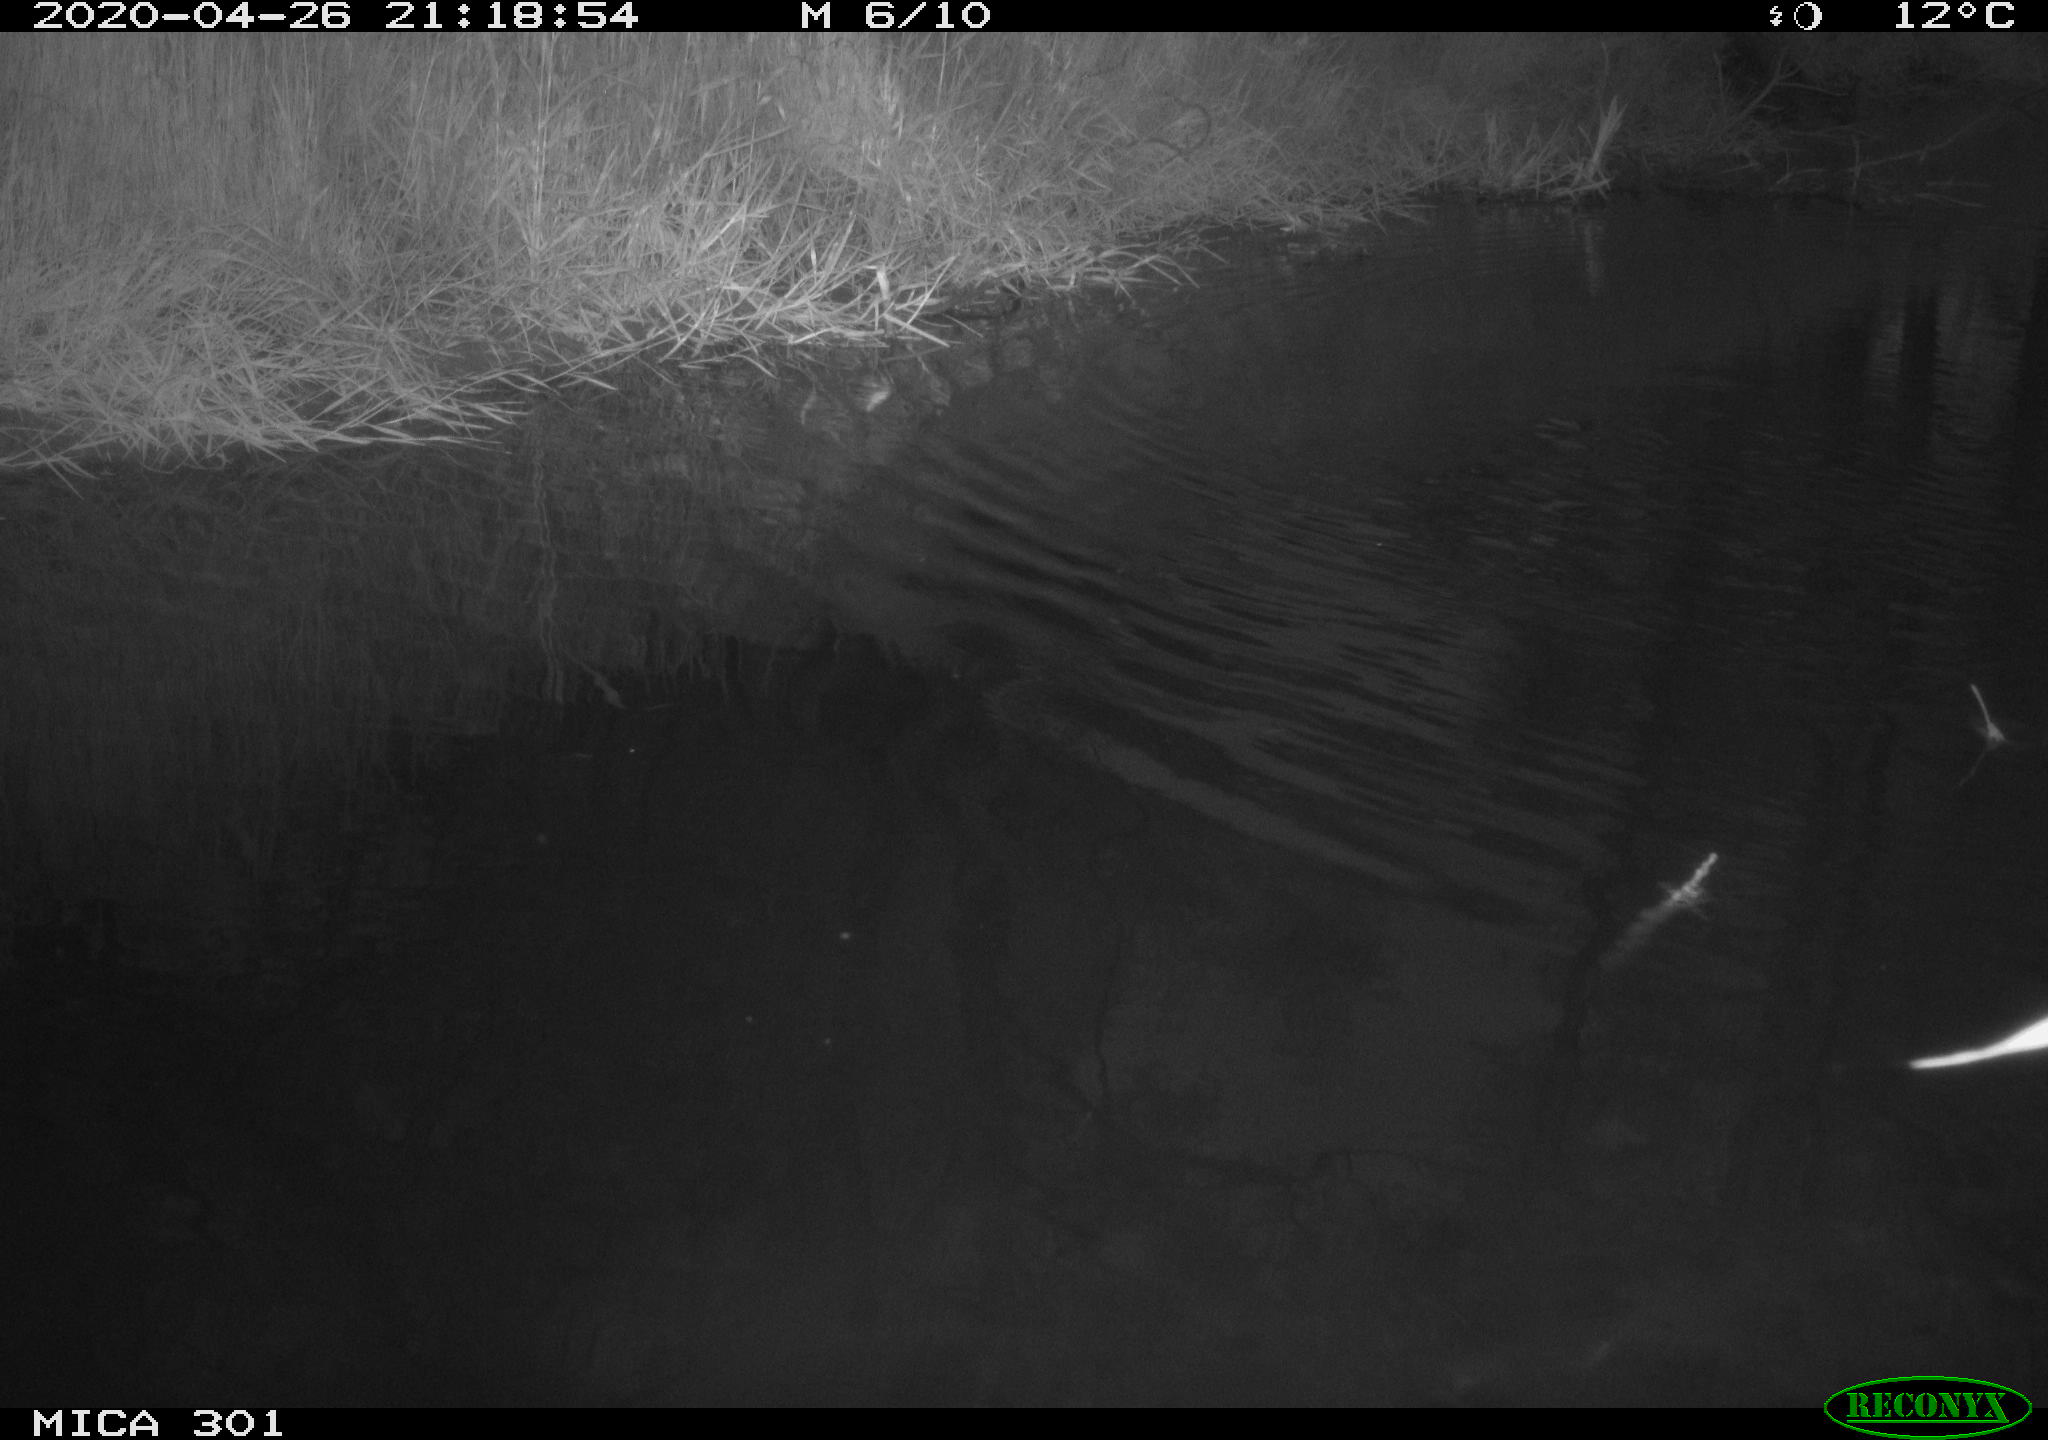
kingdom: Animalia
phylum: Chordata
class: Aves
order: Anseriformes
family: Anatidae
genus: Mareca
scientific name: Mareca strepera
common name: Gadwall
